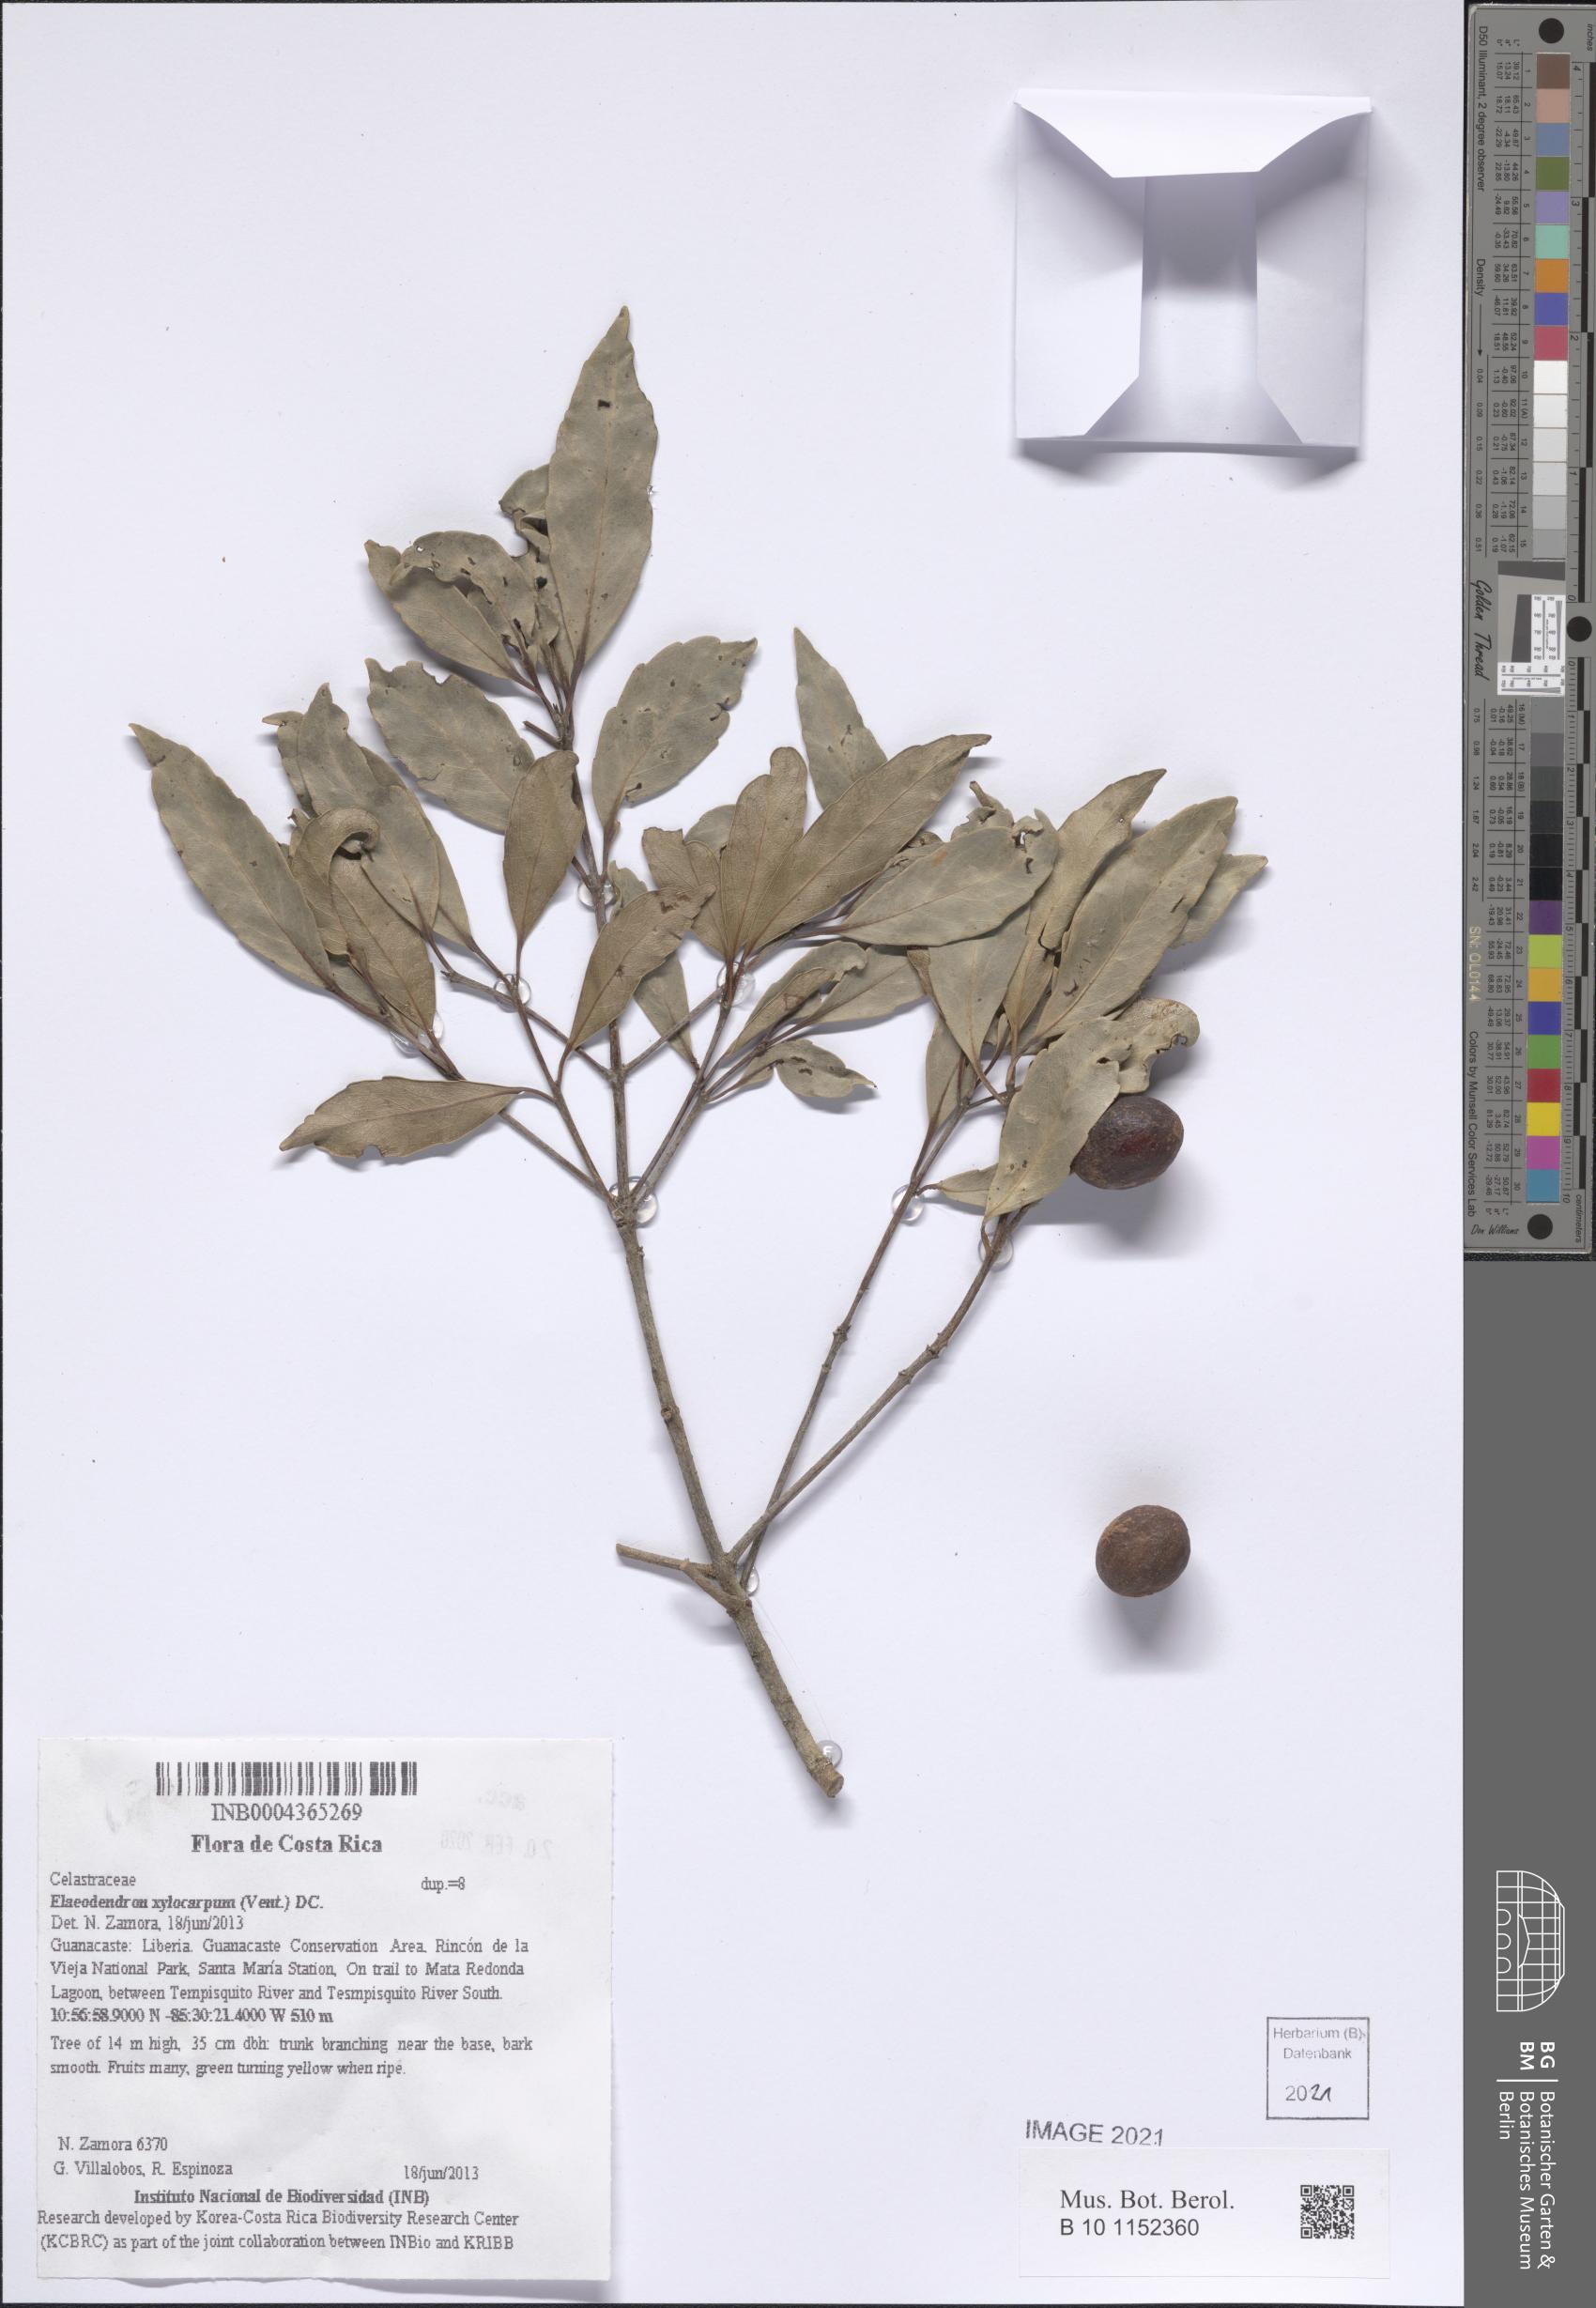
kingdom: Plantae
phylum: Tracheophyta
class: Magnoliopsida
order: Celastrales
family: Celastraceae
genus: Elaeodendron
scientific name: Elaeodendron xylocarpum
